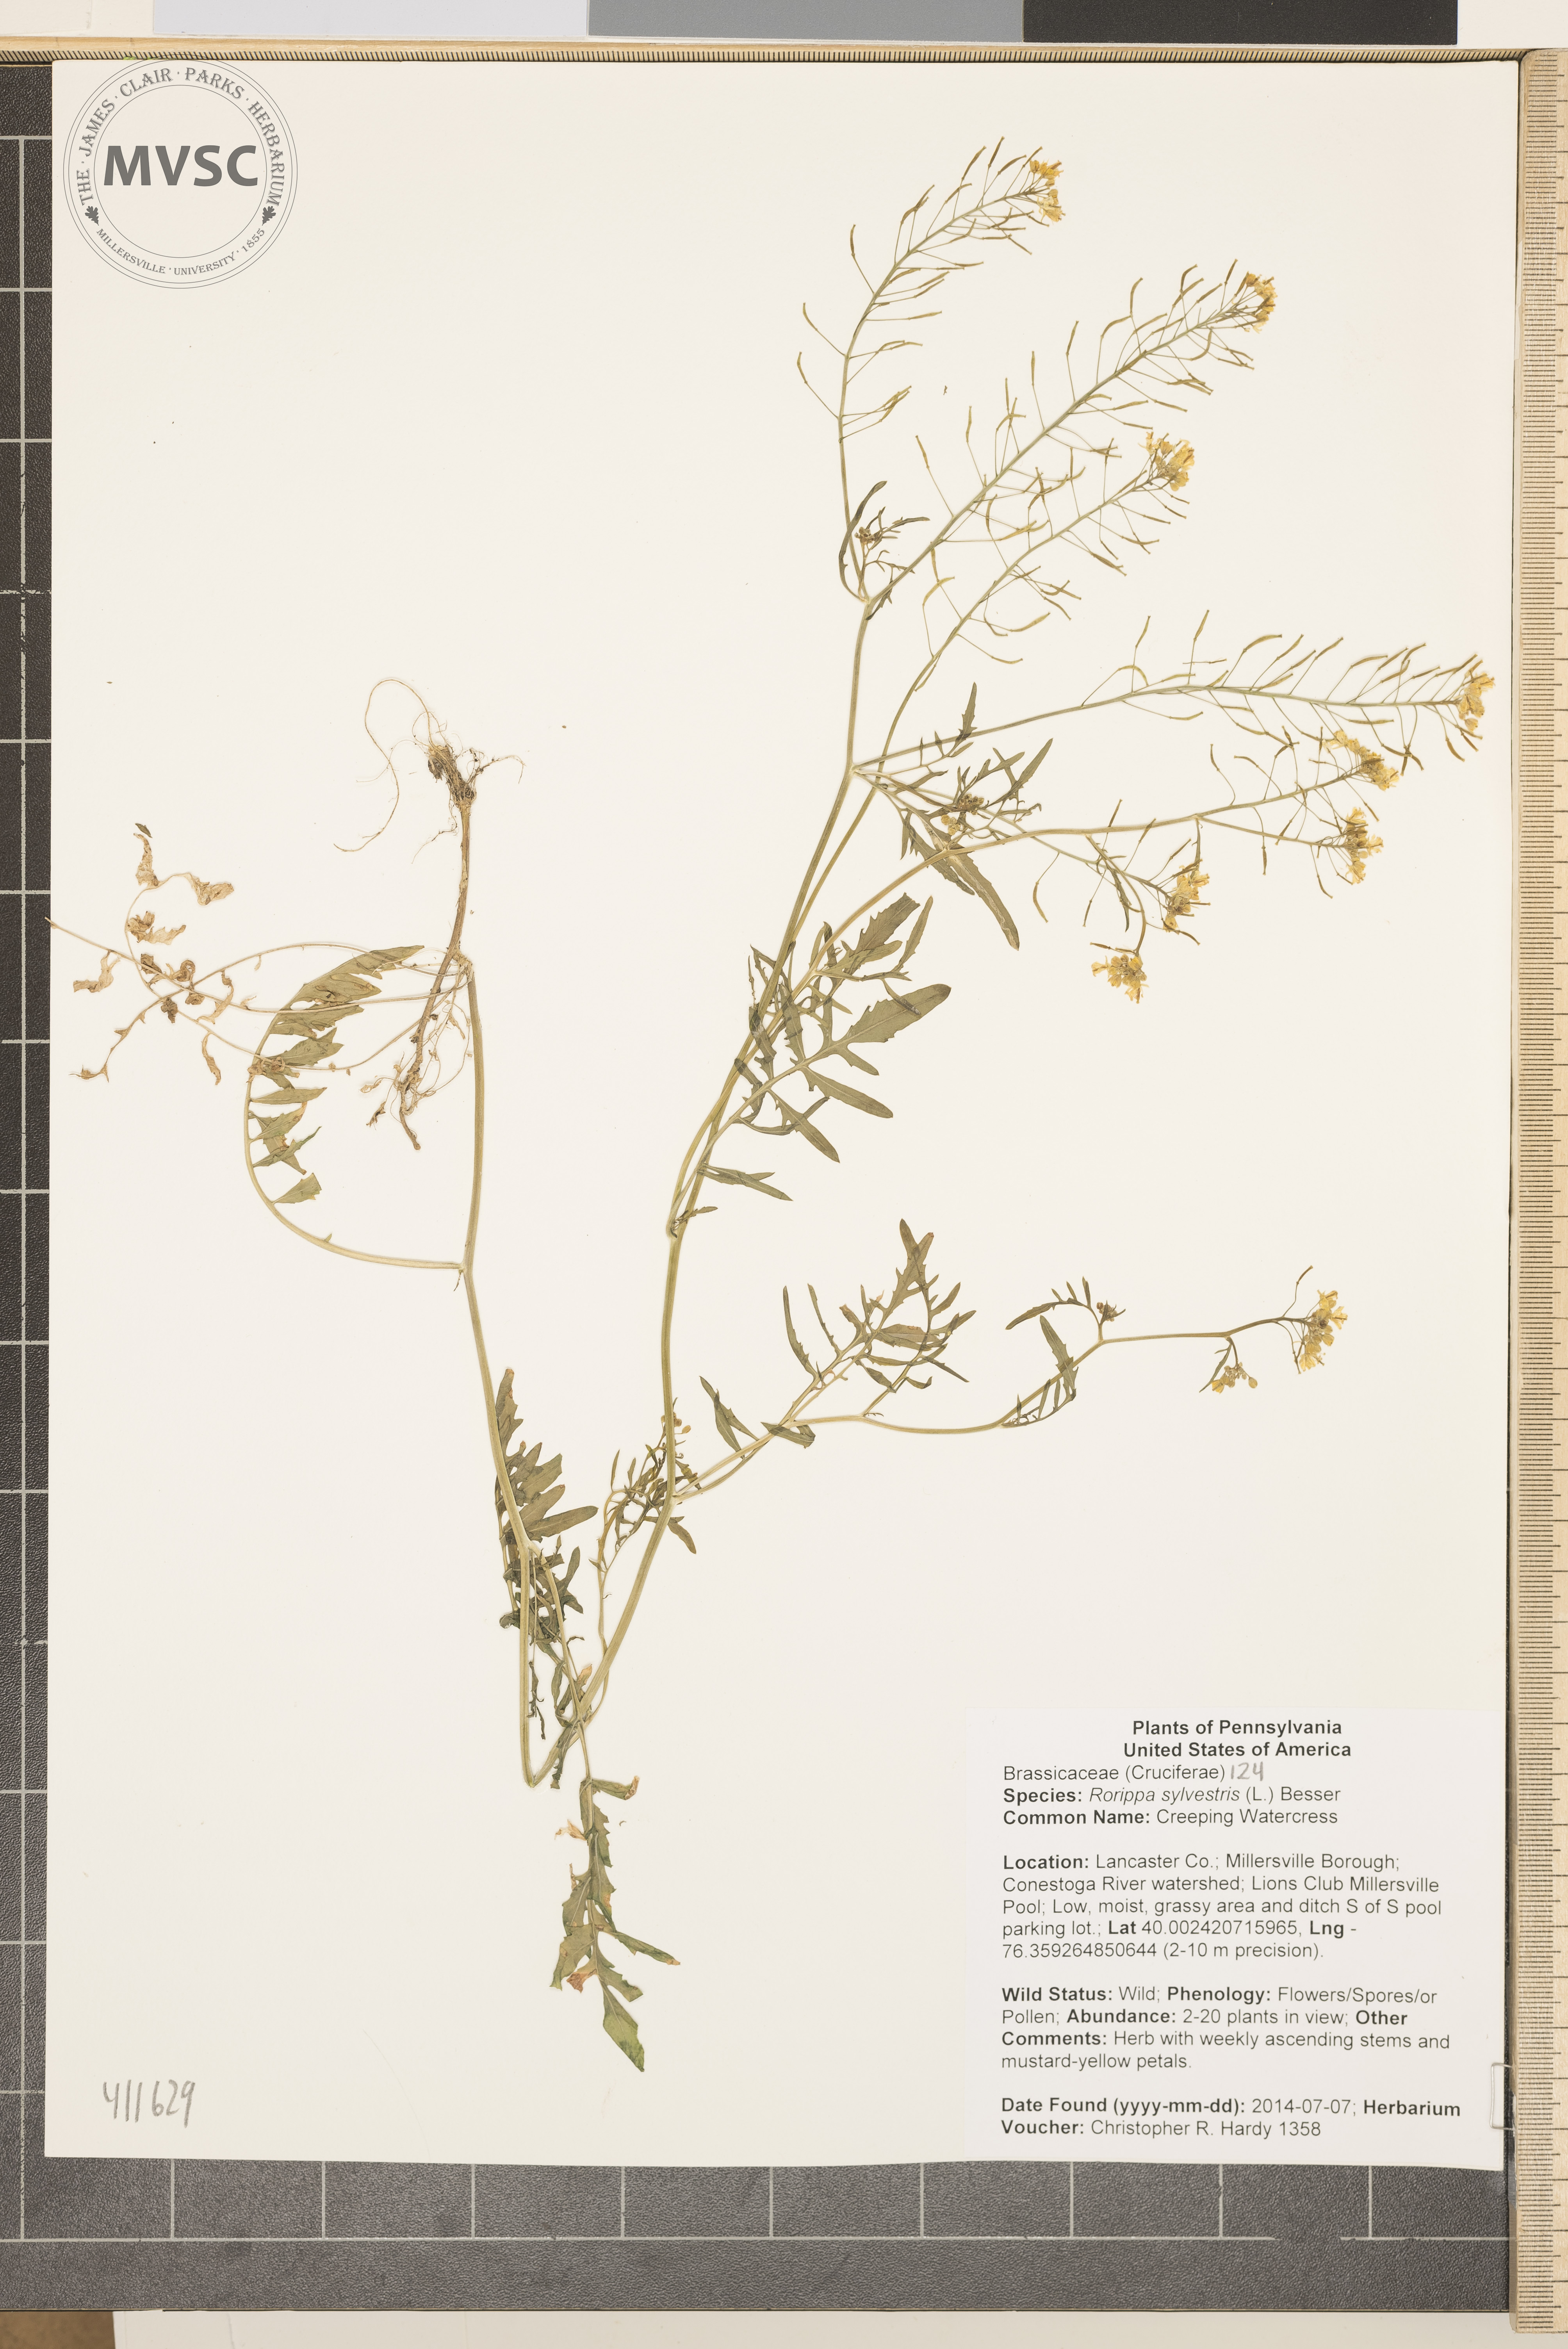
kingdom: Plantae
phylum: Tracheophyta
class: Magnoliopsida
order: Brassicales
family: Brassicaceae
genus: Rorippa
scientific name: Rorippa sylvestris
